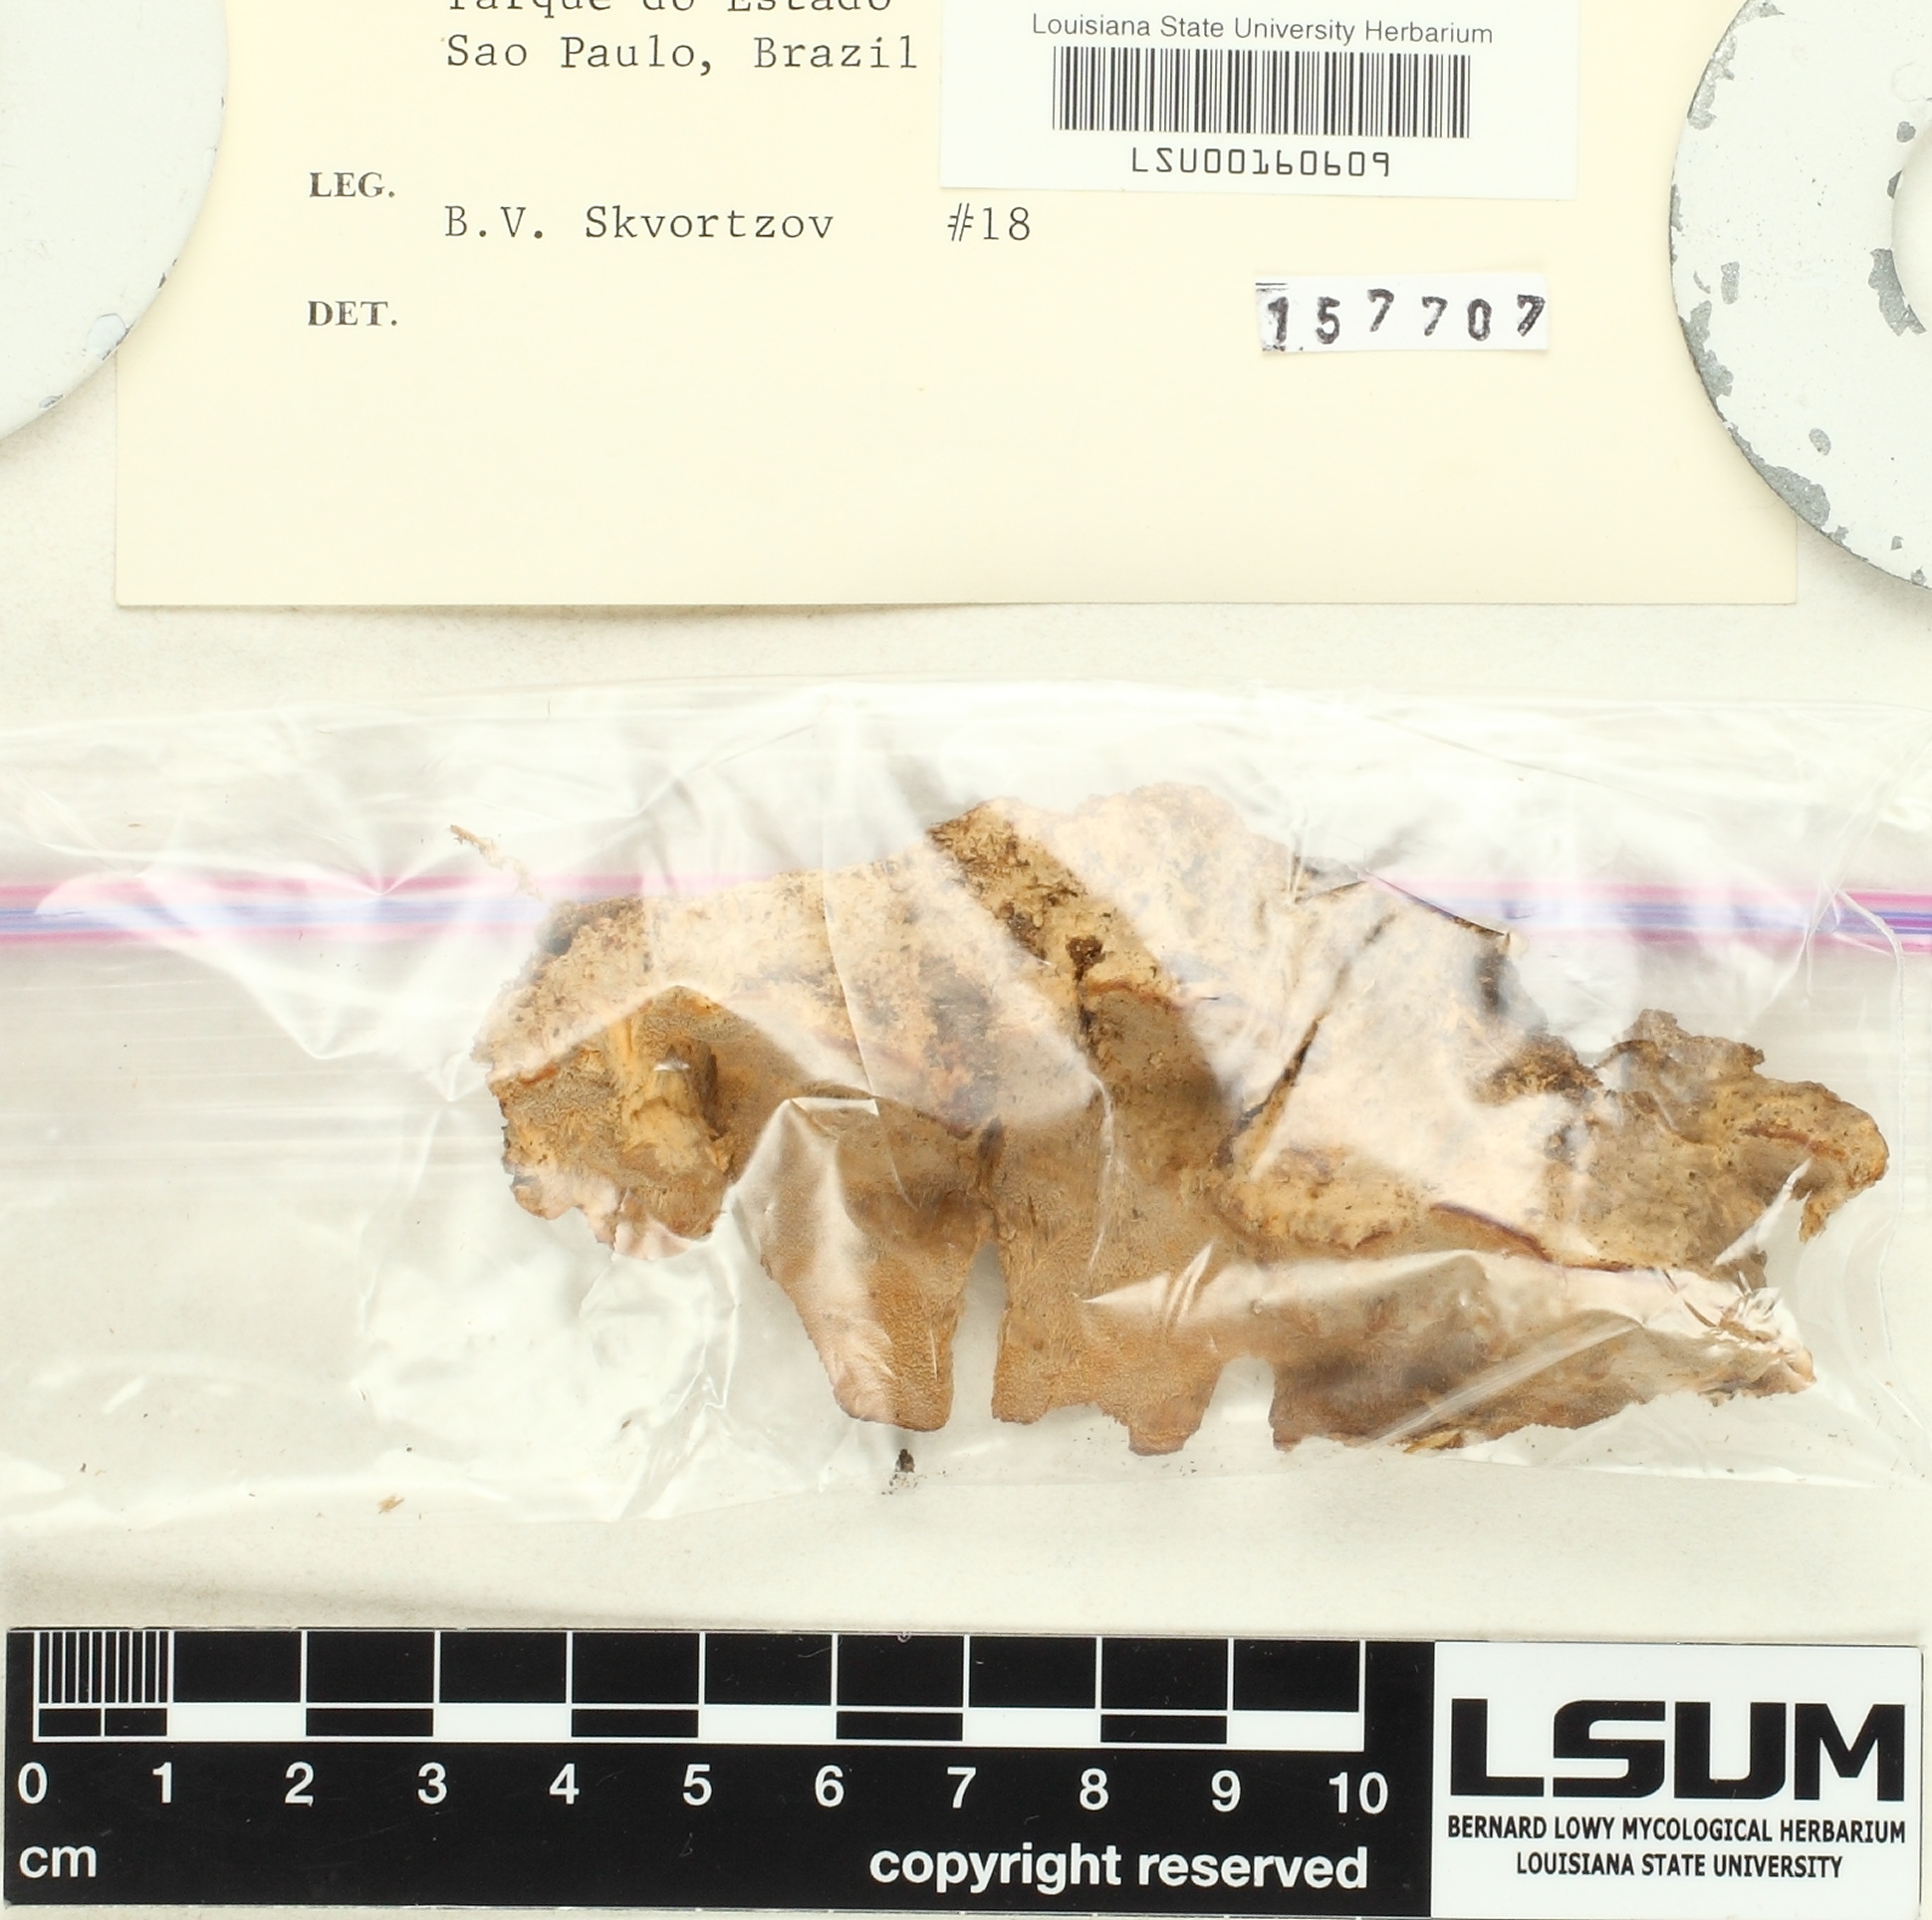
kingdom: Fungi
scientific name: Fungi
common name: Fungi
